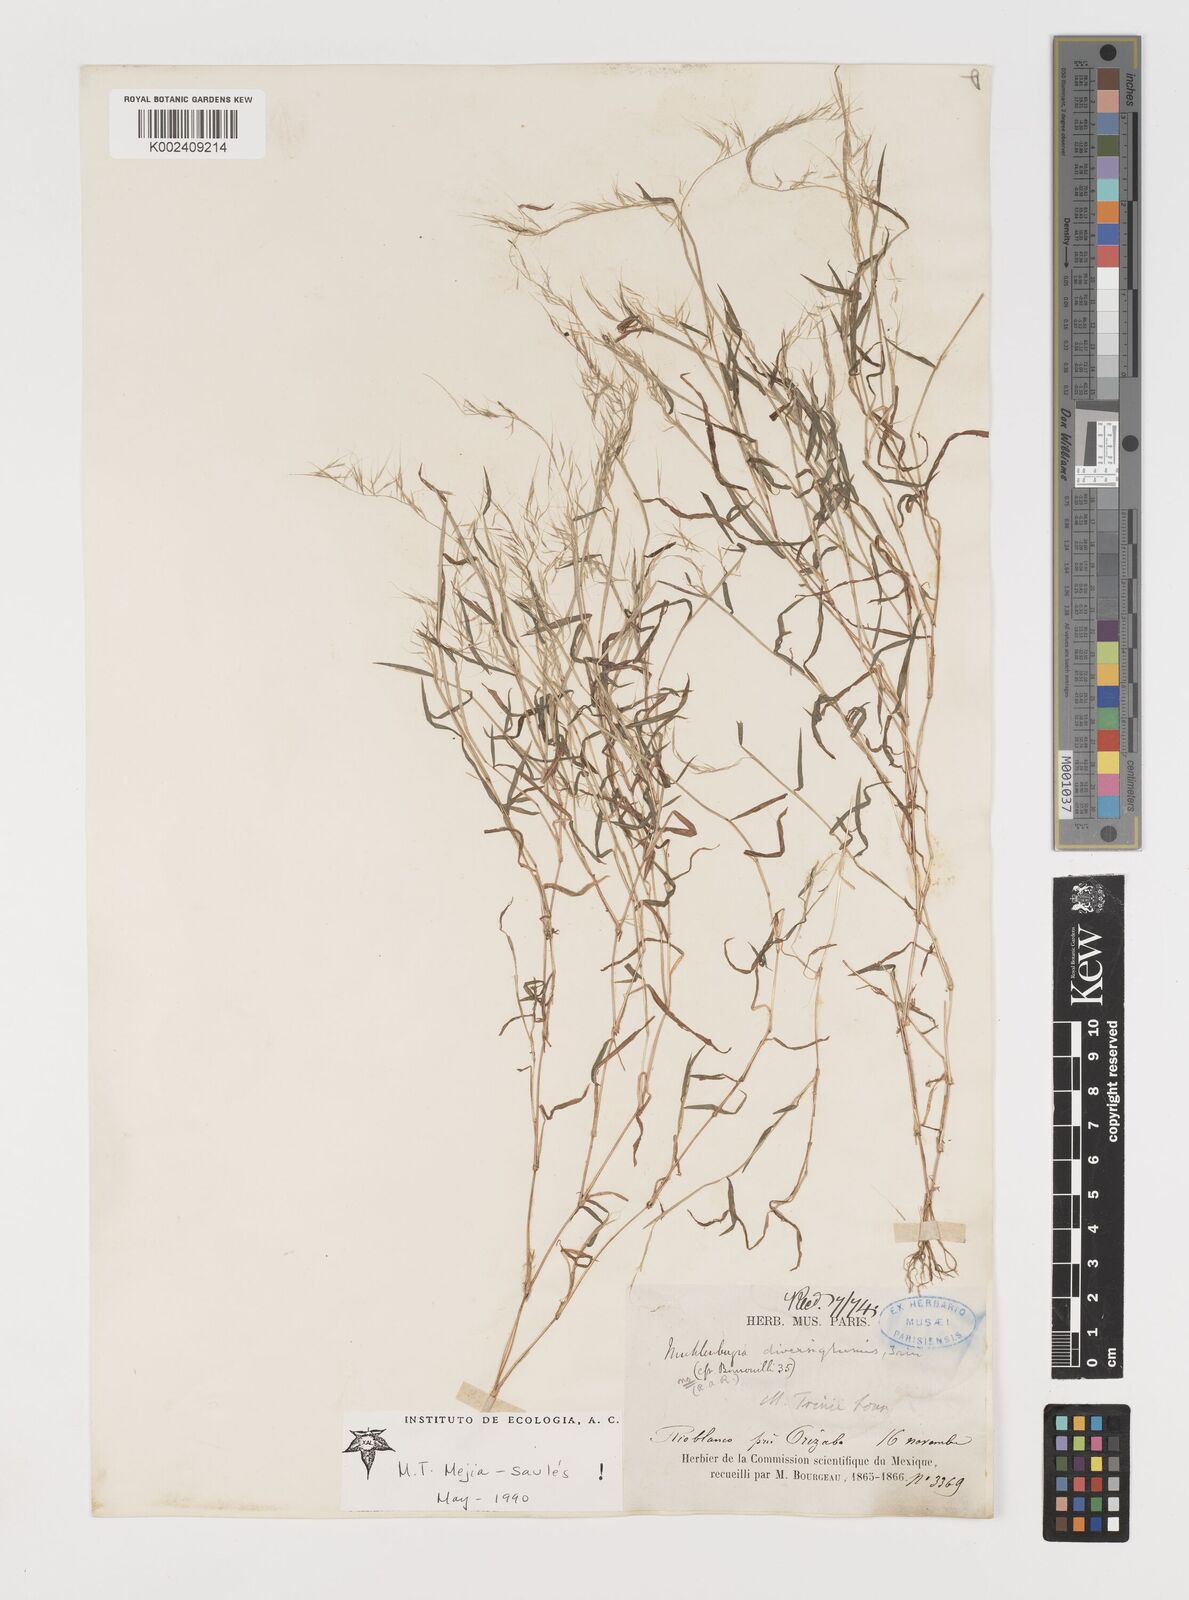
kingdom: Plantae
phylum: Tracheophyta
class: Liliopsida
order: Poales
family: Poaceae
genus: Muhlenbergia
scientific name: Muhlenbergia diversiglumis
